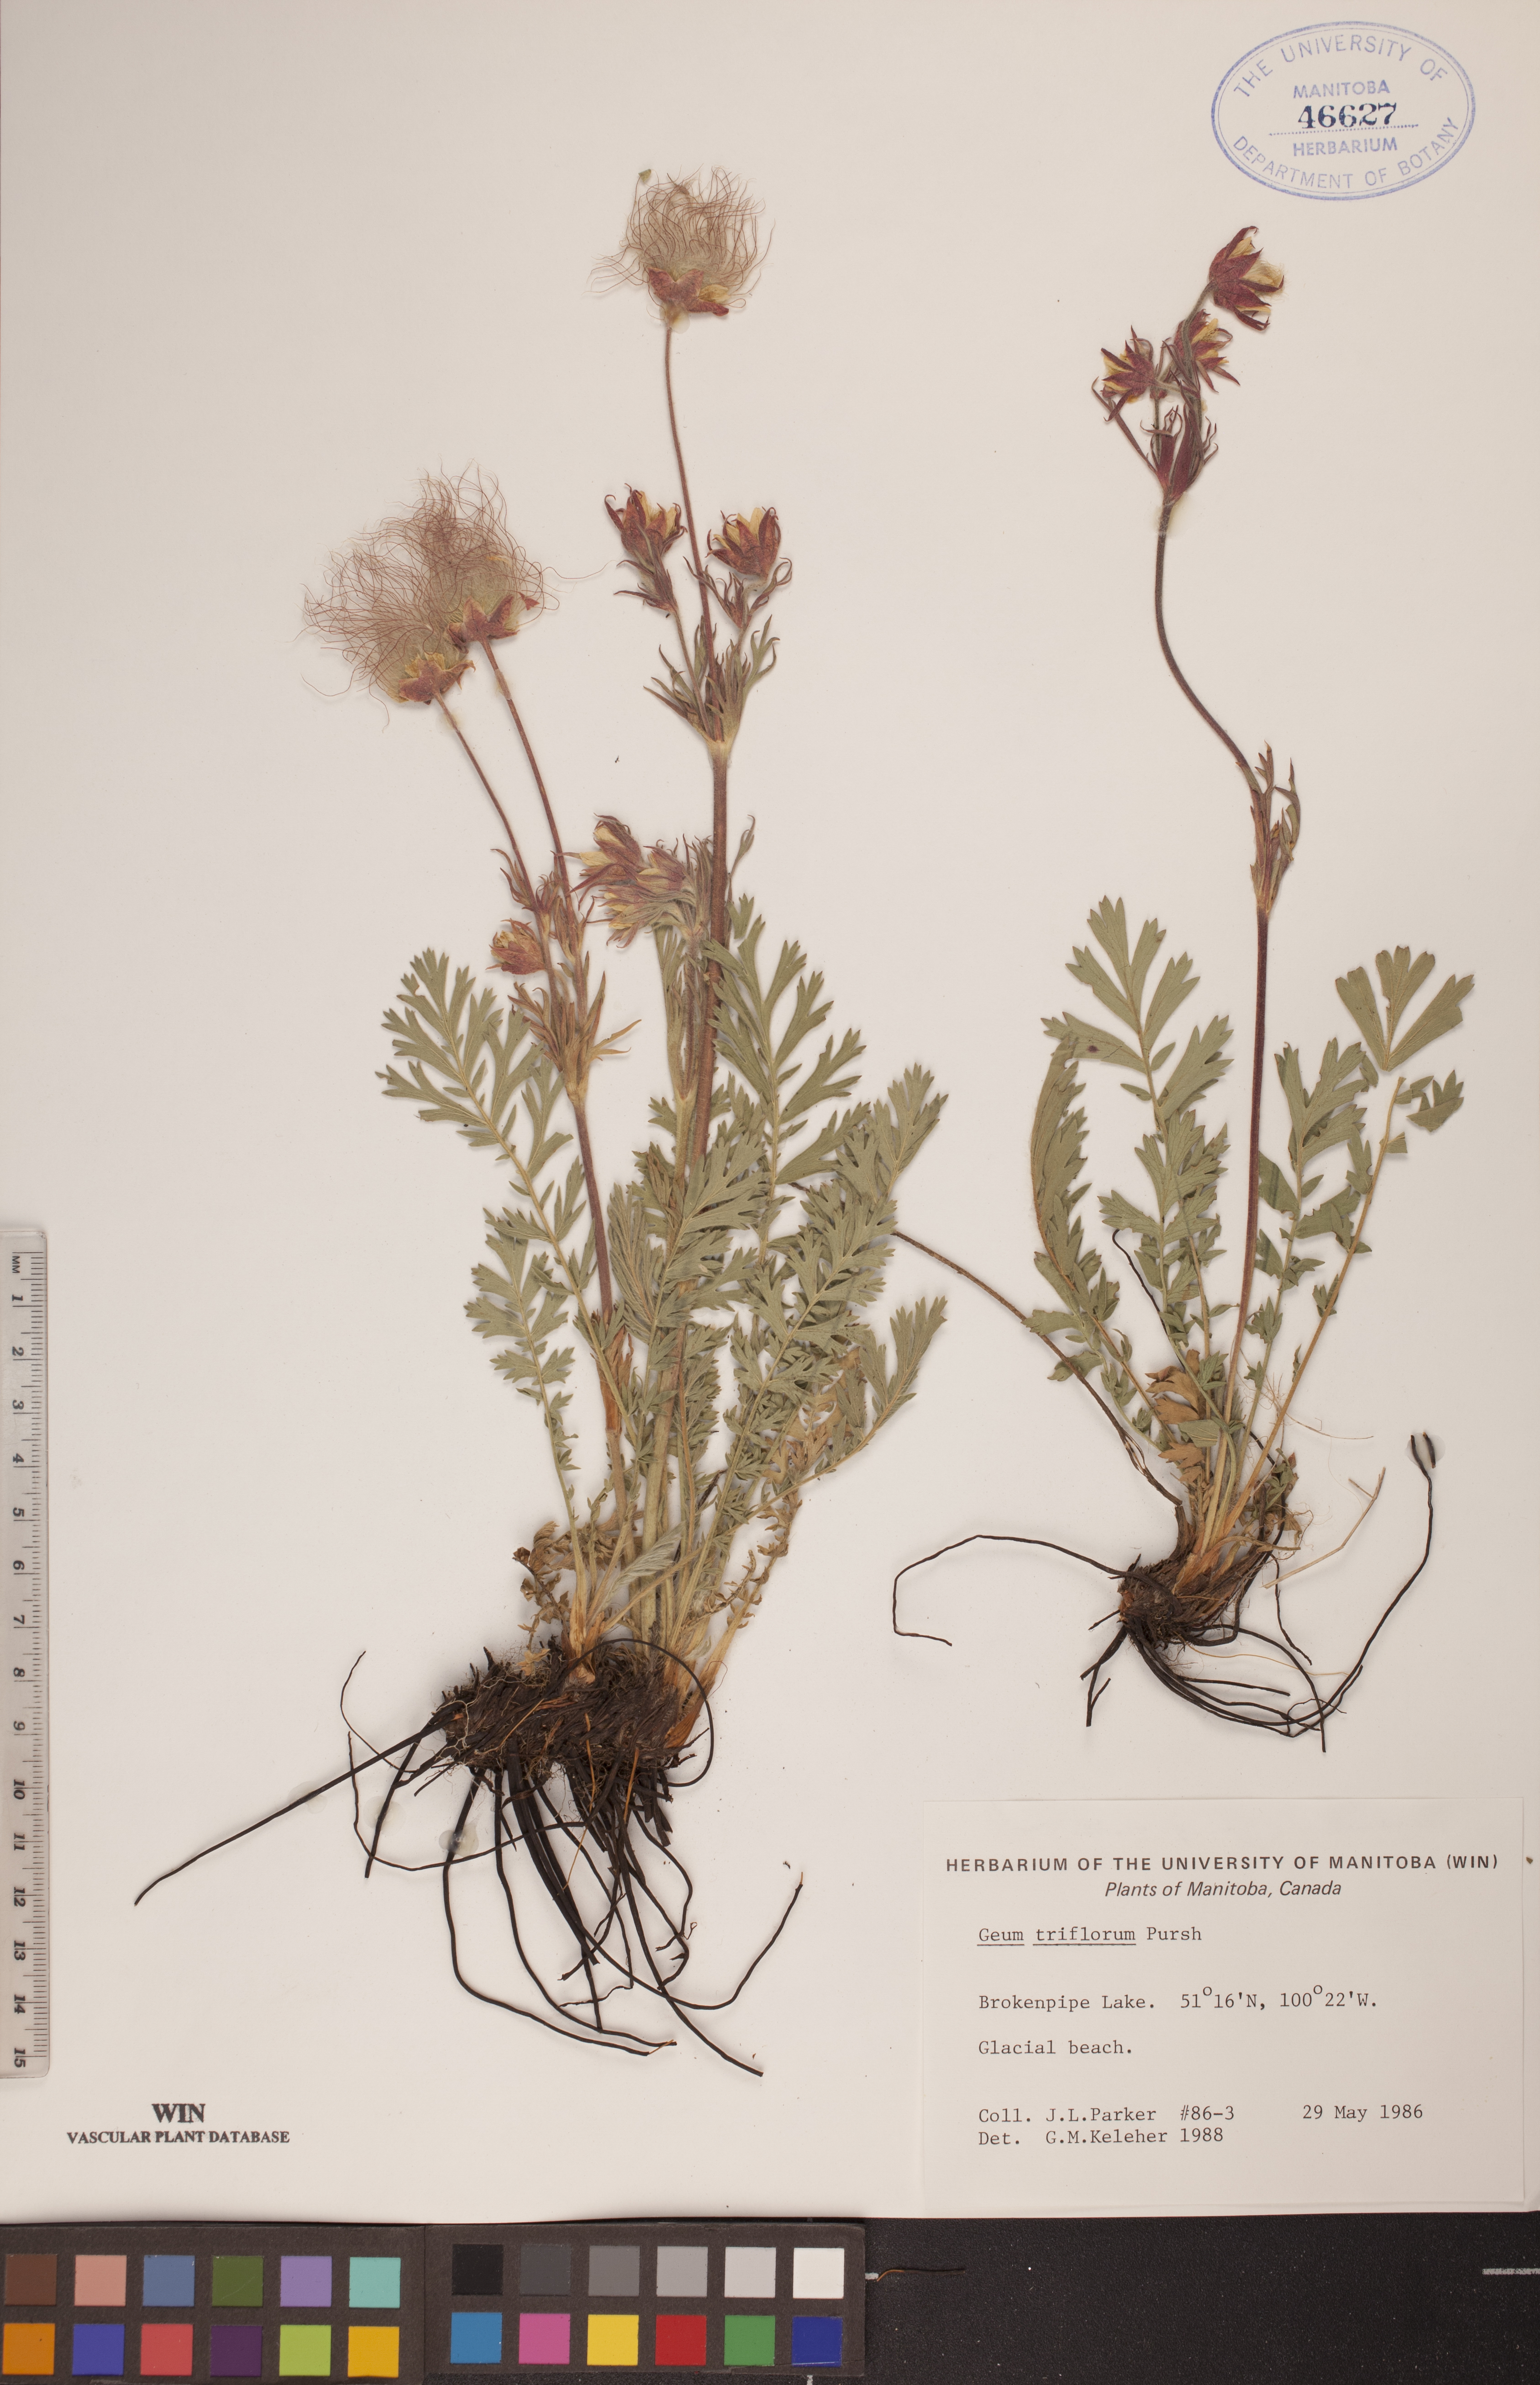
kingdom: Plantae
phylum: Tracheophyta
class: Magnoliopsida
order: Rosales
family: Rosaceae
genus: Geum
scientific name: Geum triflorum
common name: Old man's whiskers
